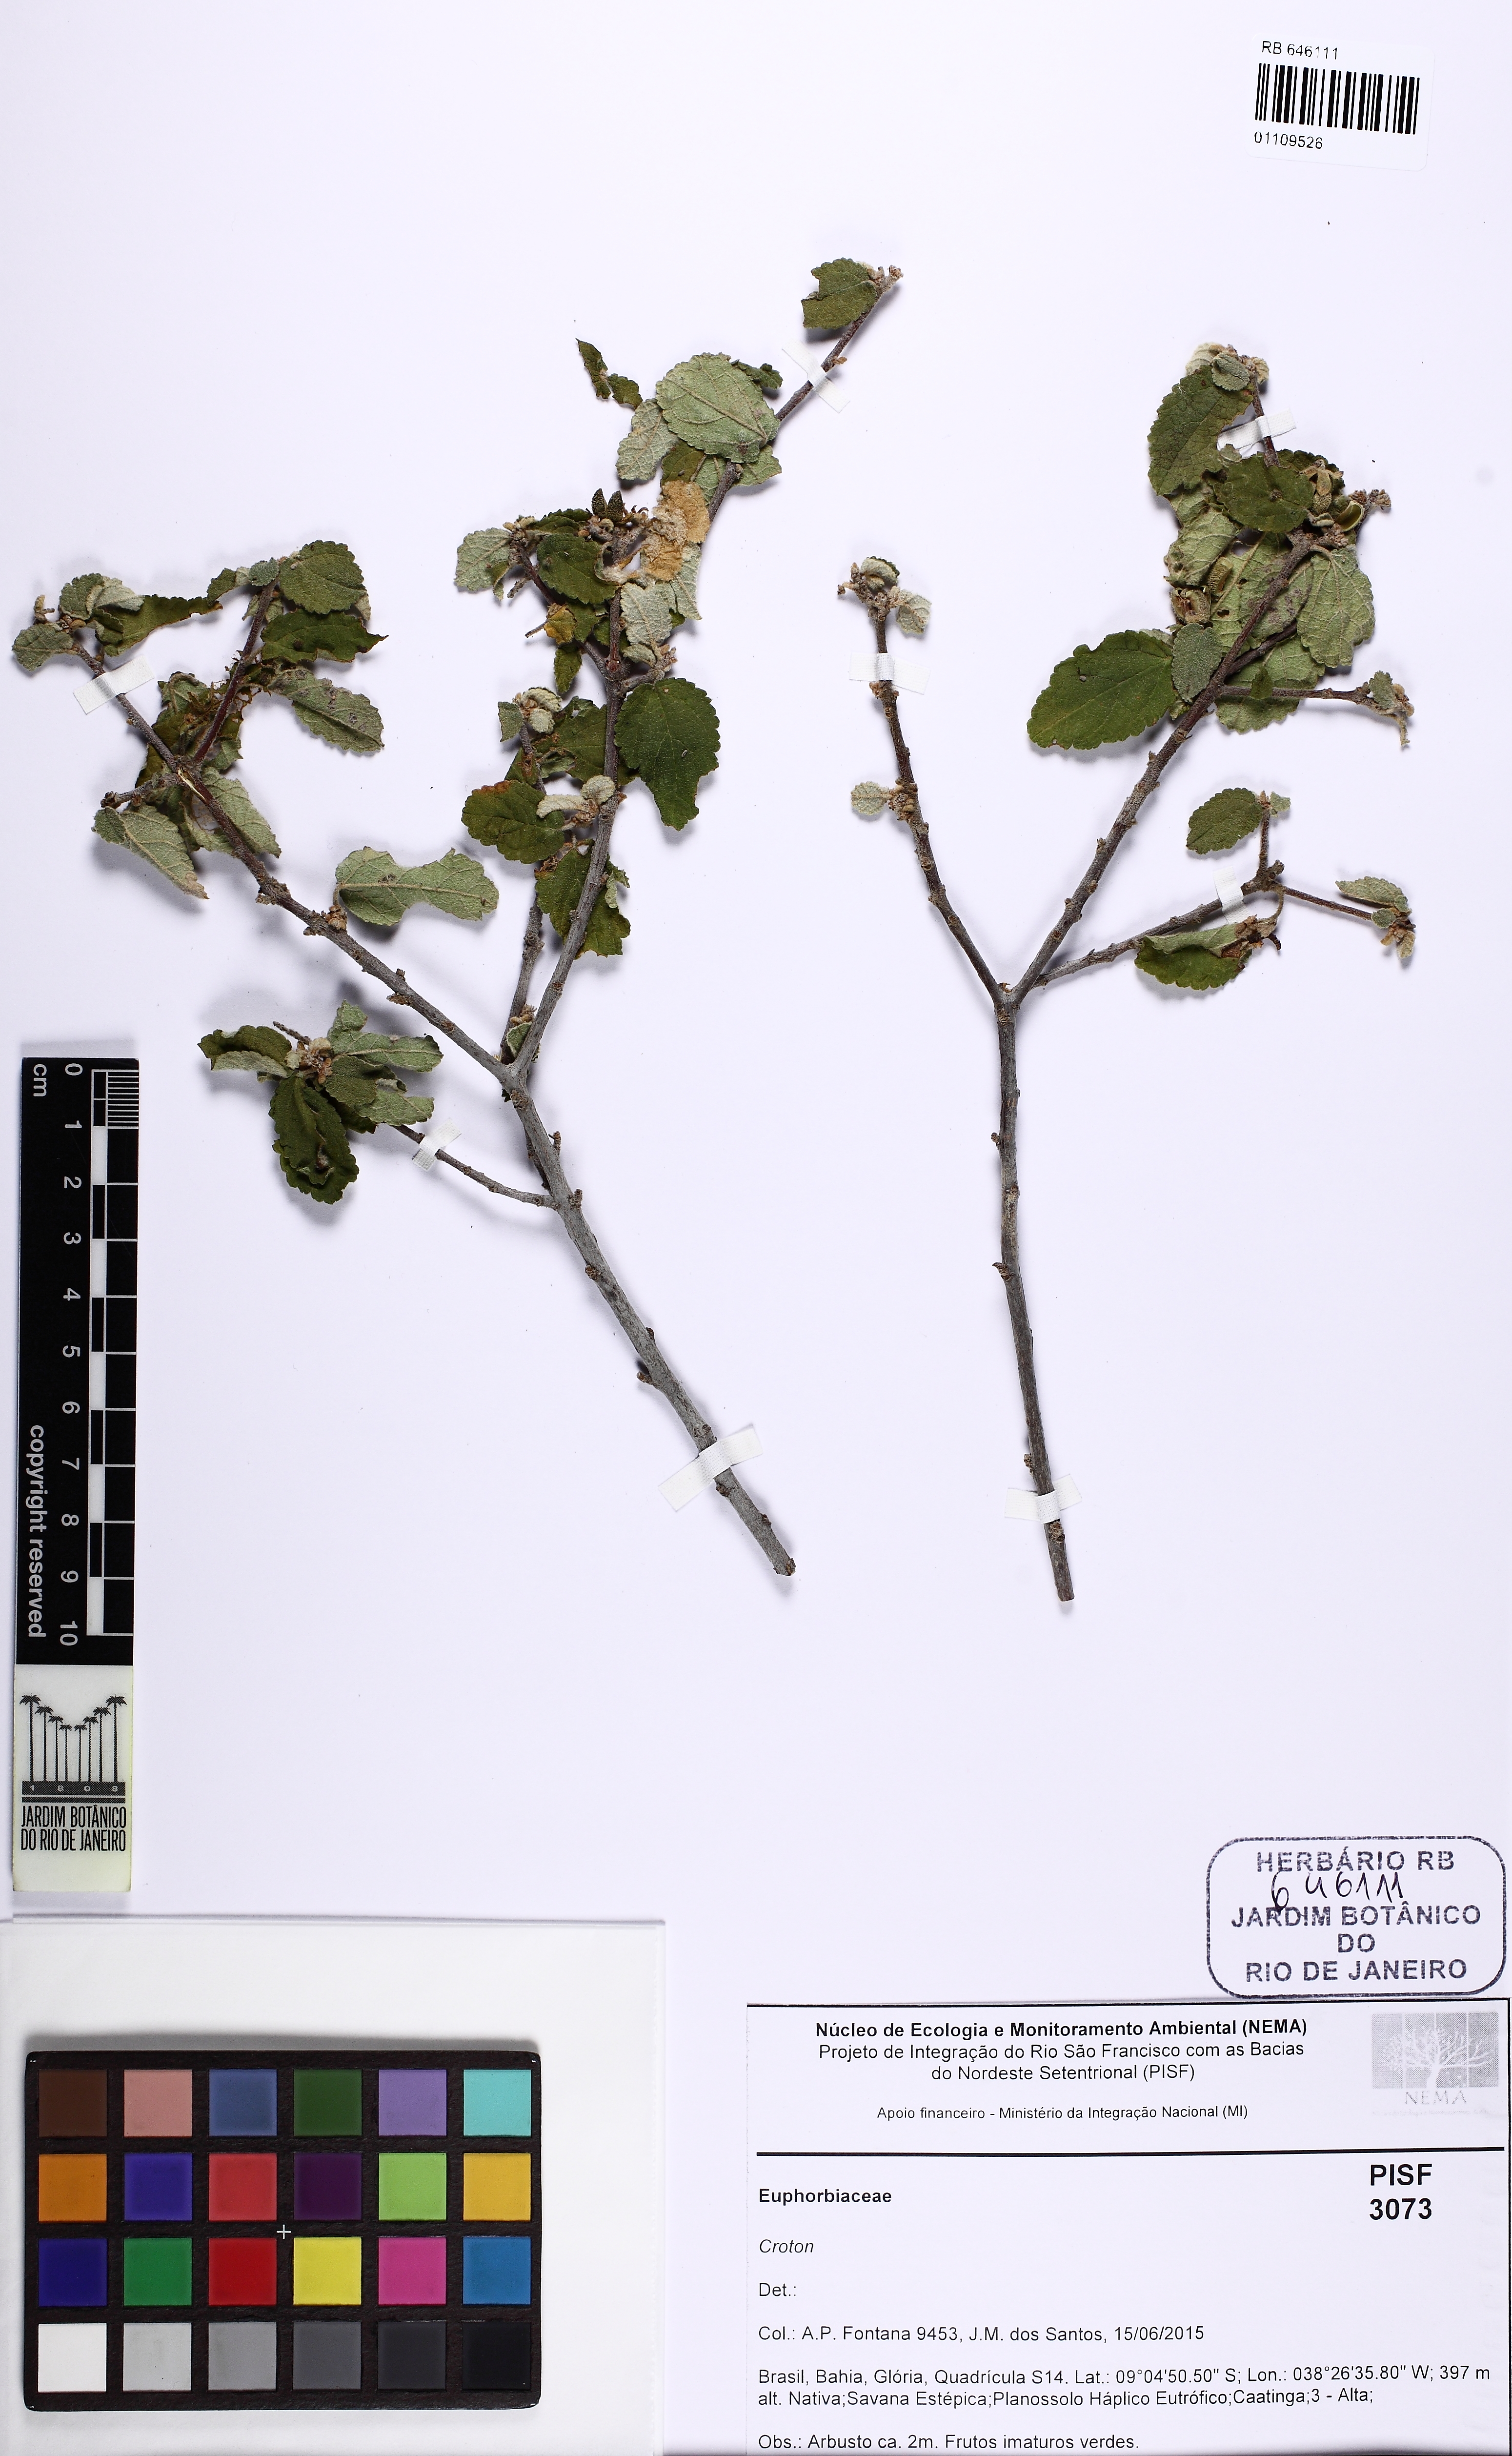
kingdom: Plantae
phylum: Tracheophyta
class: Magnoliopsida
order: Malpighiales
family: Euphorbiaceae
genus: Croton
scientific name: Croton
